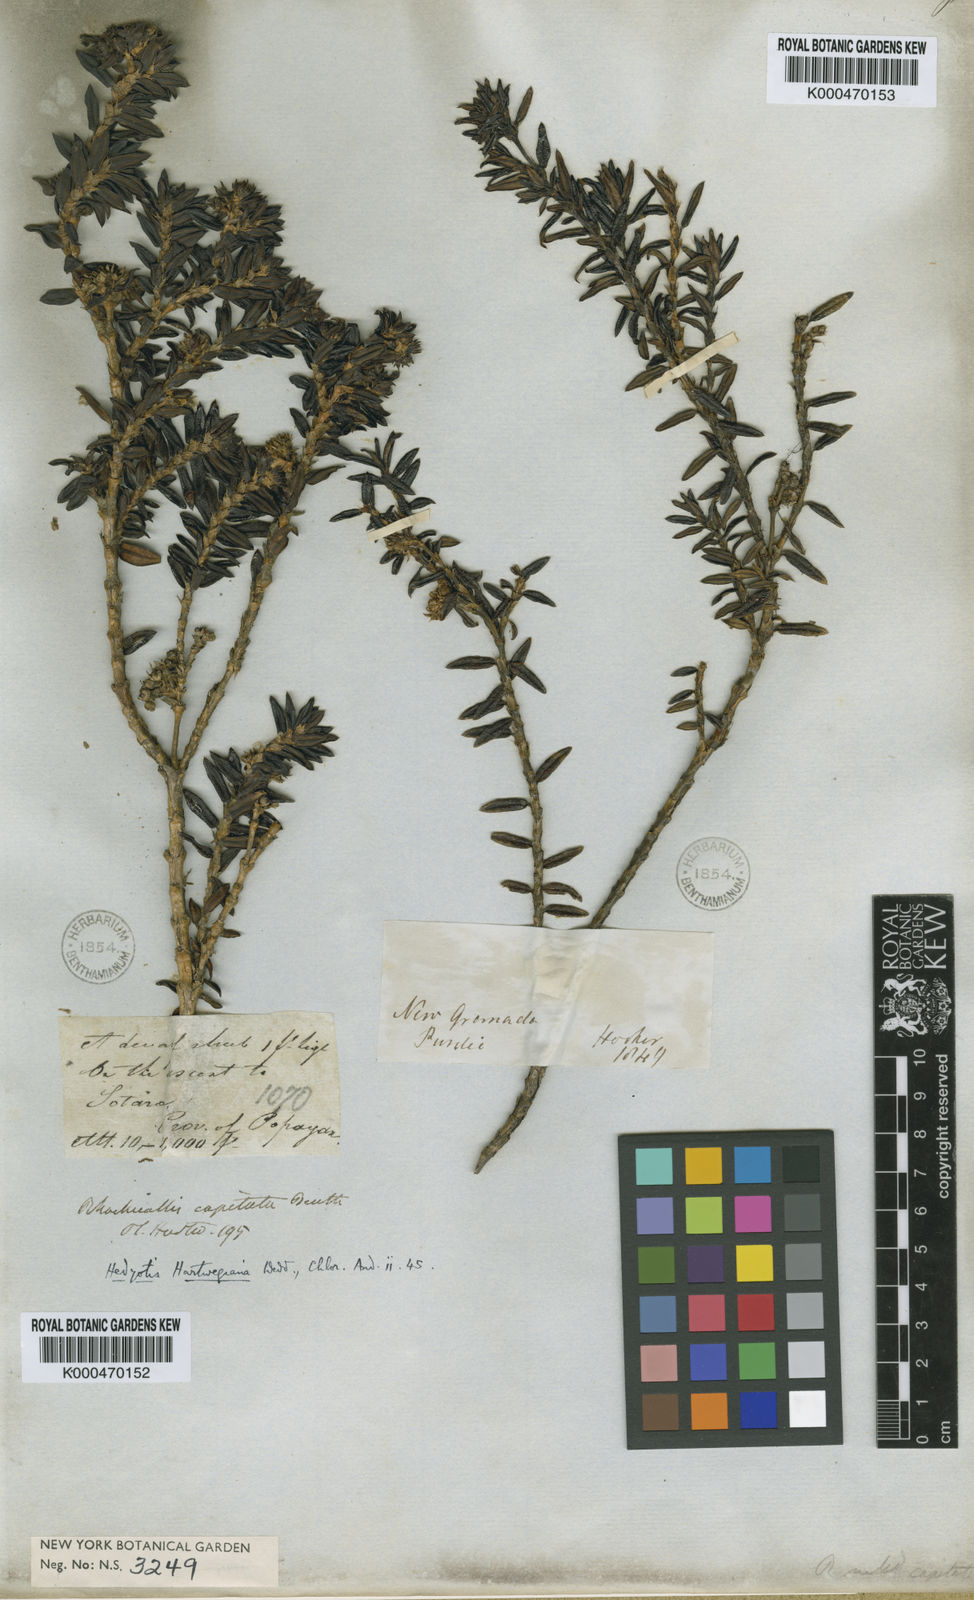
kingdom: Plantae
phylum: Tracheophyta
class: Magnoliopsida
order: Gentianales
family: Rubiaceae
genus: Arcytophyllum
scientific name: Arcytophyllum capitatum
